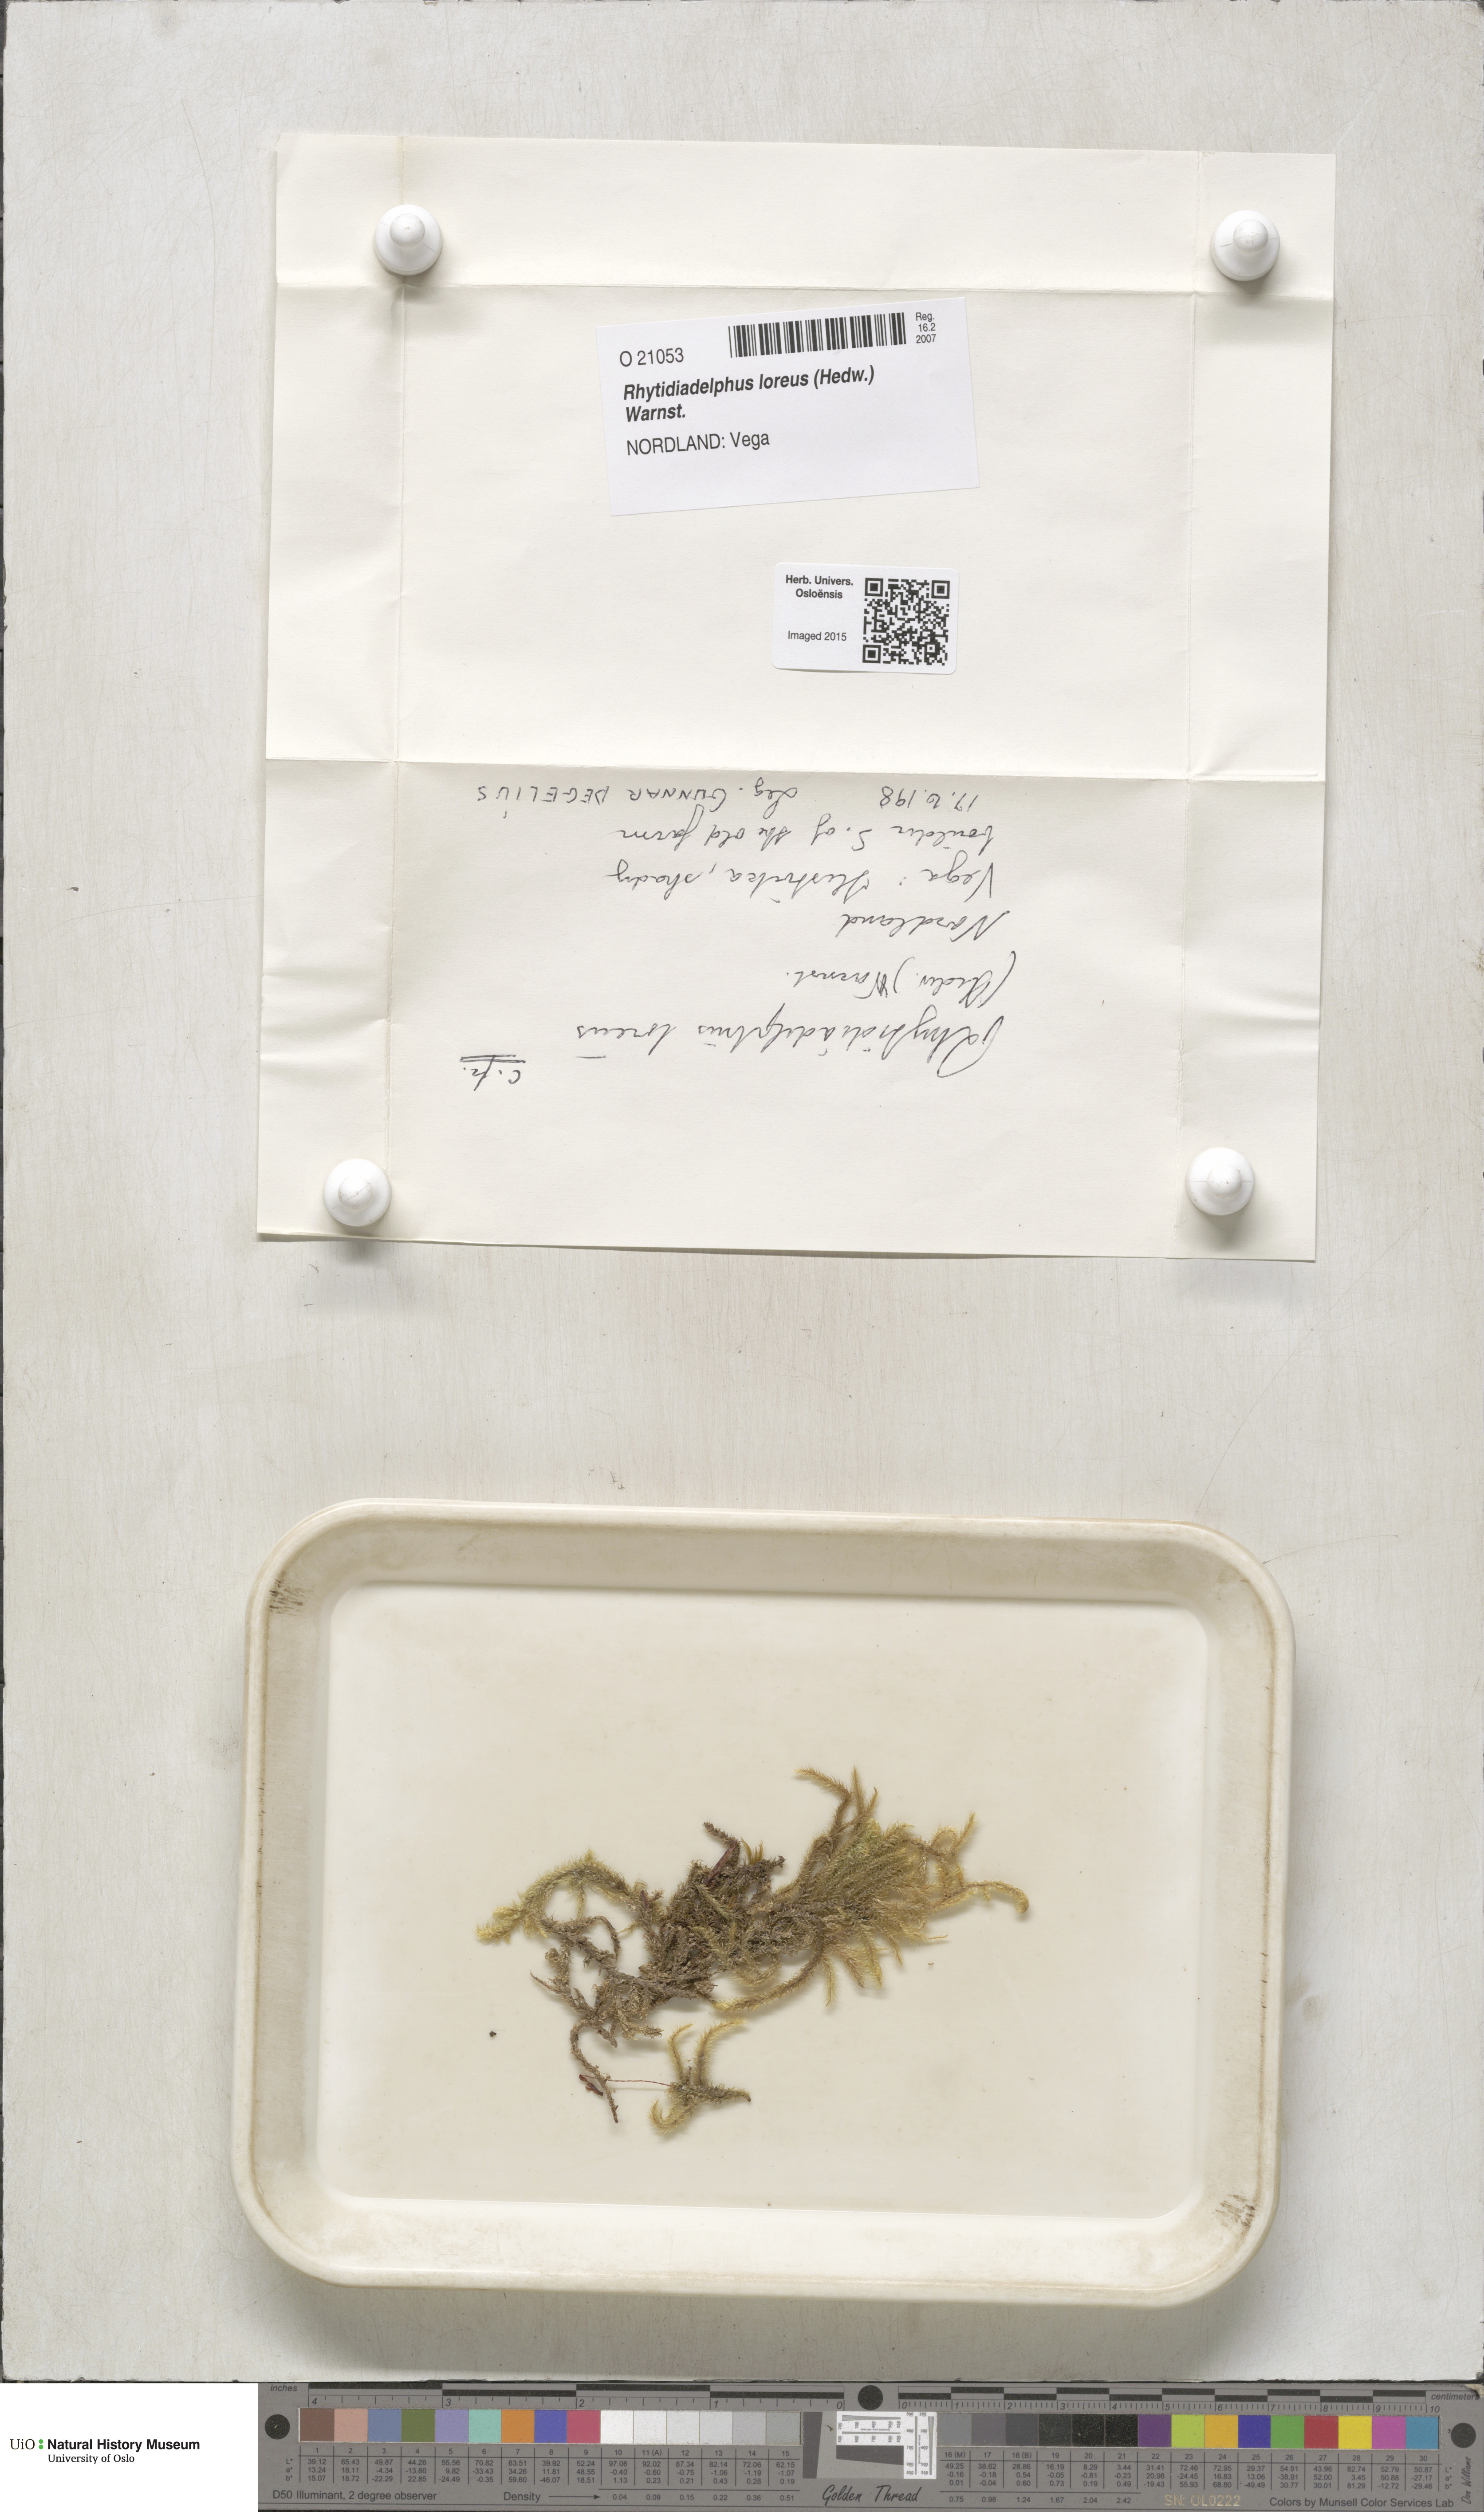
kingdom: Plantae
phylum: Bryophyta
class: Bryopsida
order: Hypnales
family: Hylocomiaceae
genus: Rhytidiadelphus
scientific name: Rhytidiadelphus loreus
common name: Lanky moss
